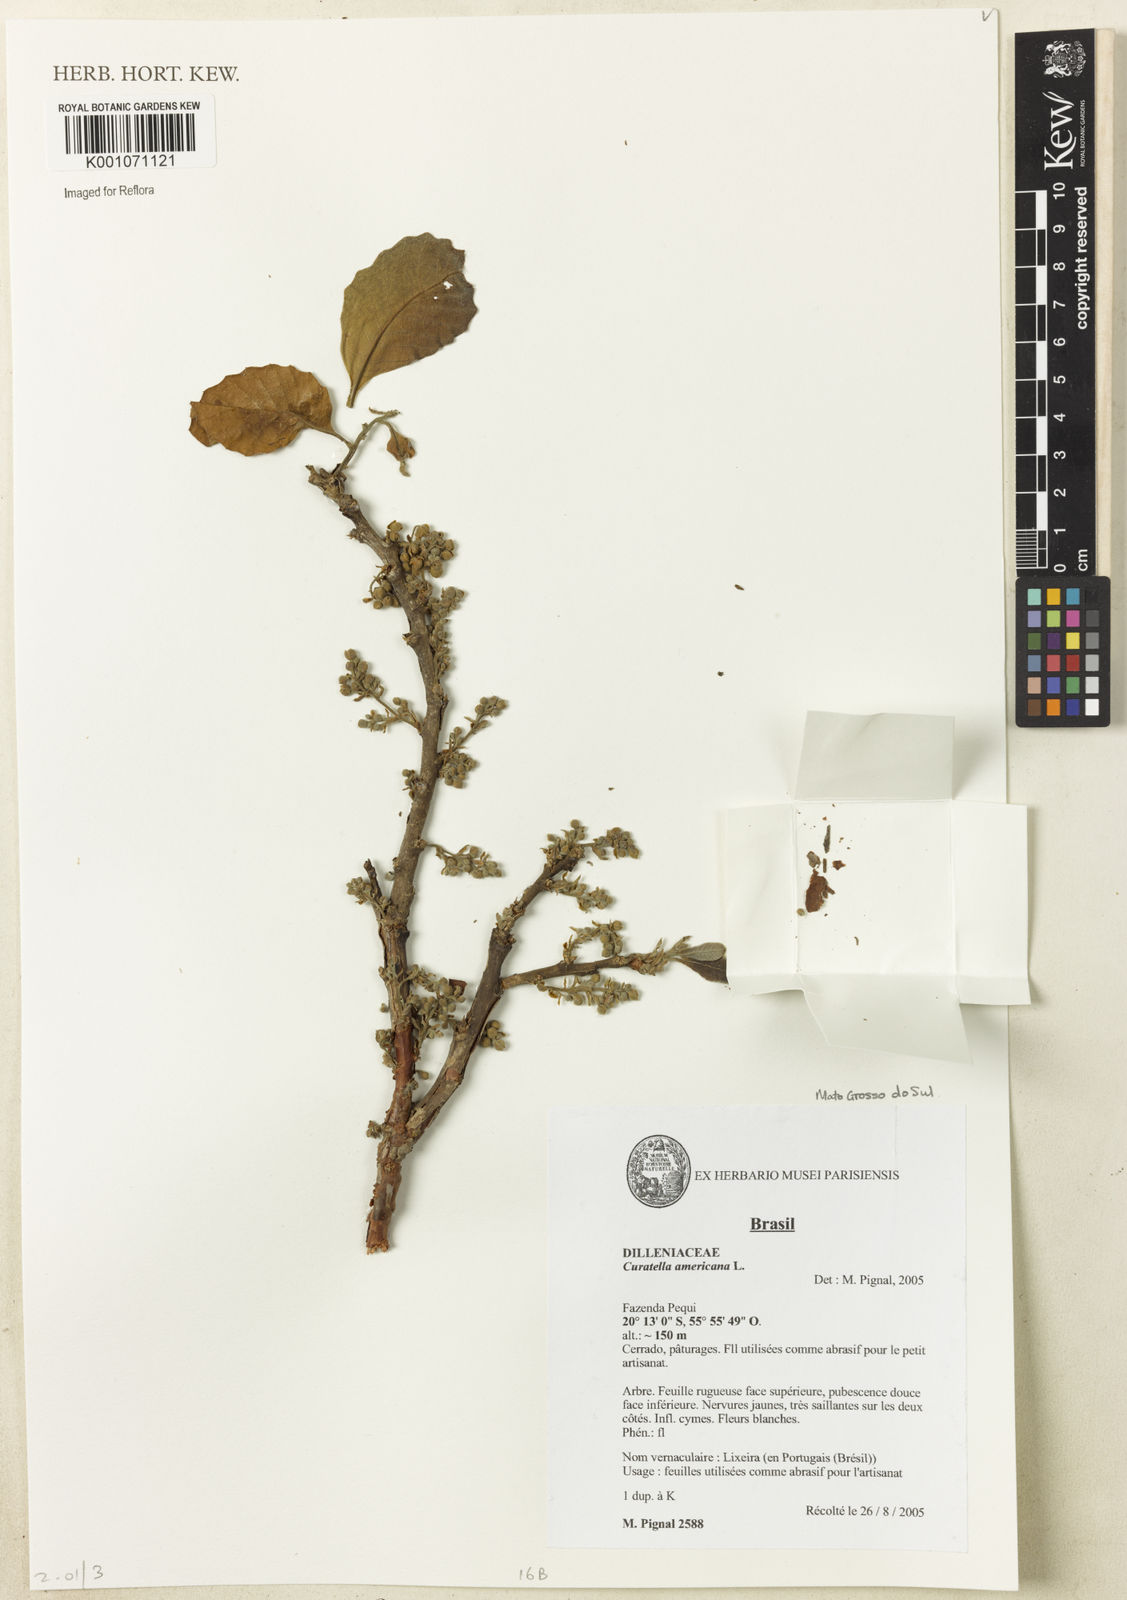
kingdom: Plantae
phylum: Tracheophyta
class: Magnoliopsida
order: Dilleniales
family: Dilleniaceae
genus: Curatella
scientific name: Curatella americana
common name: Sandpaper tree
